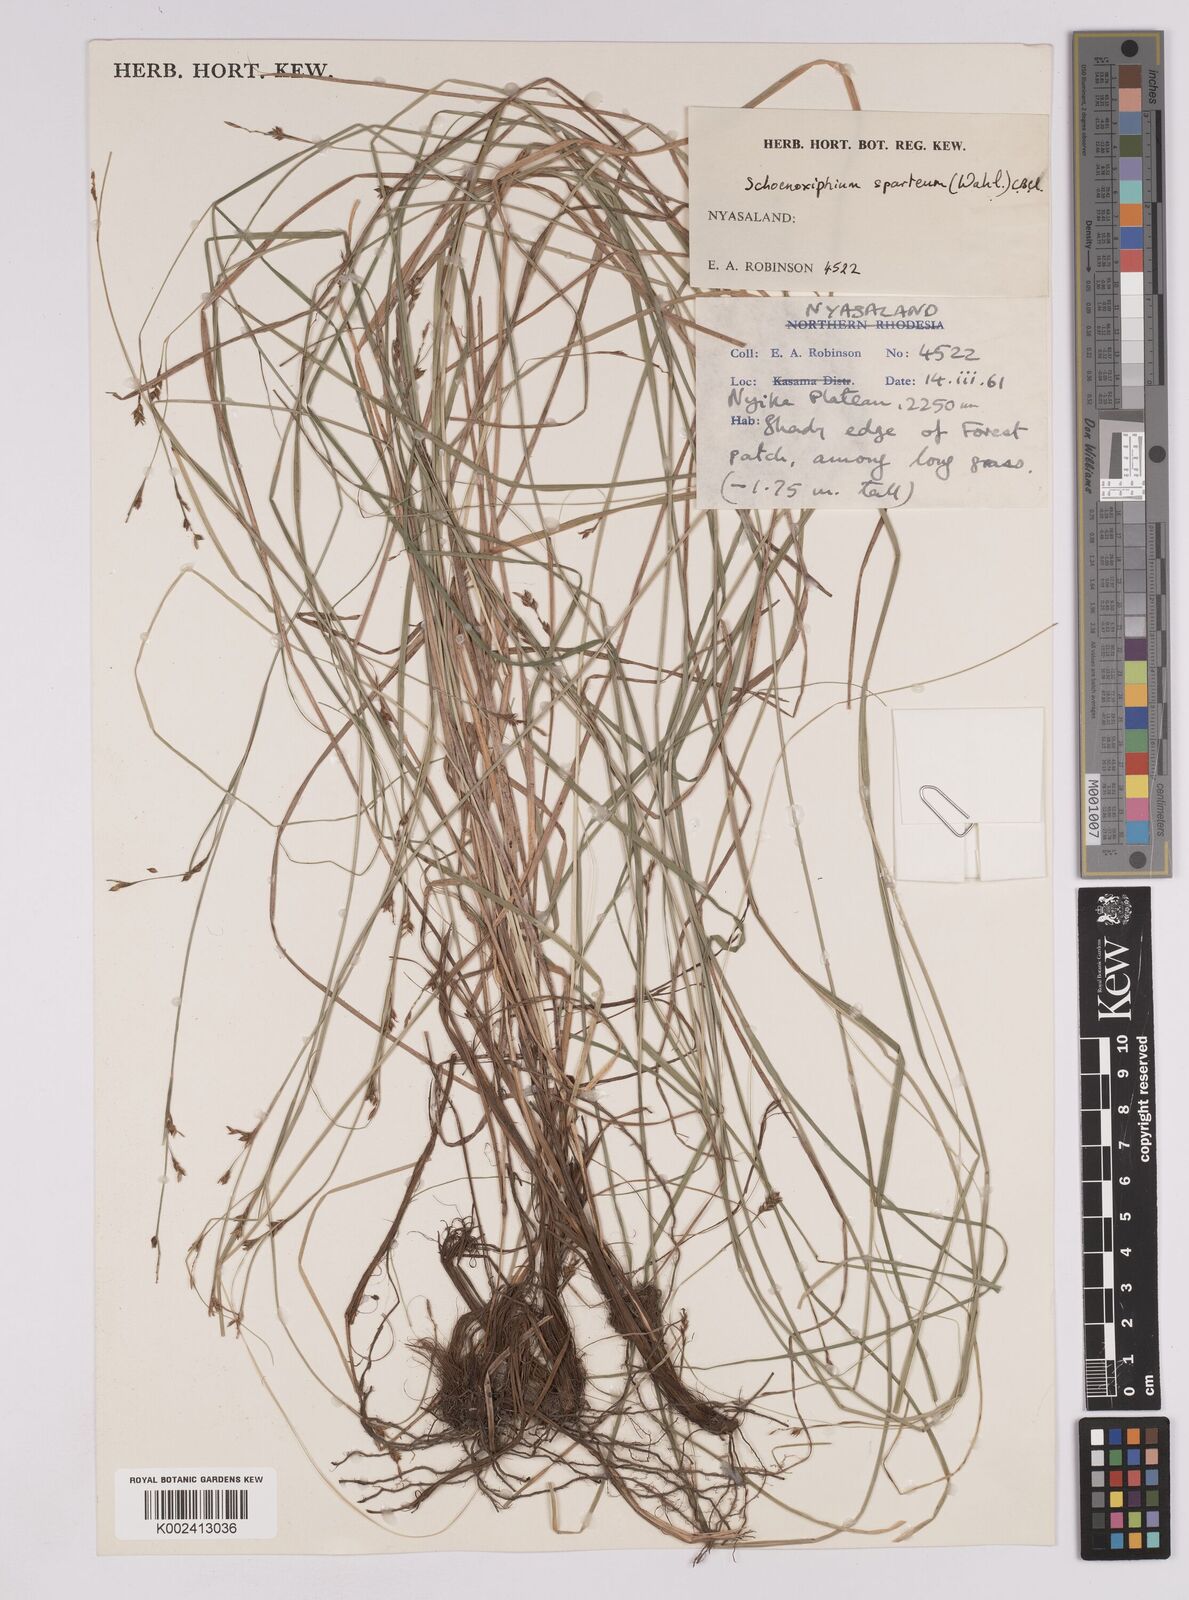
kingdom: Plantae
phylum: Tracheophyta
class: Liliopsida
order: Poales
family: Cyperaceae
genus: Carex
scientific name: Carex schimperiana
